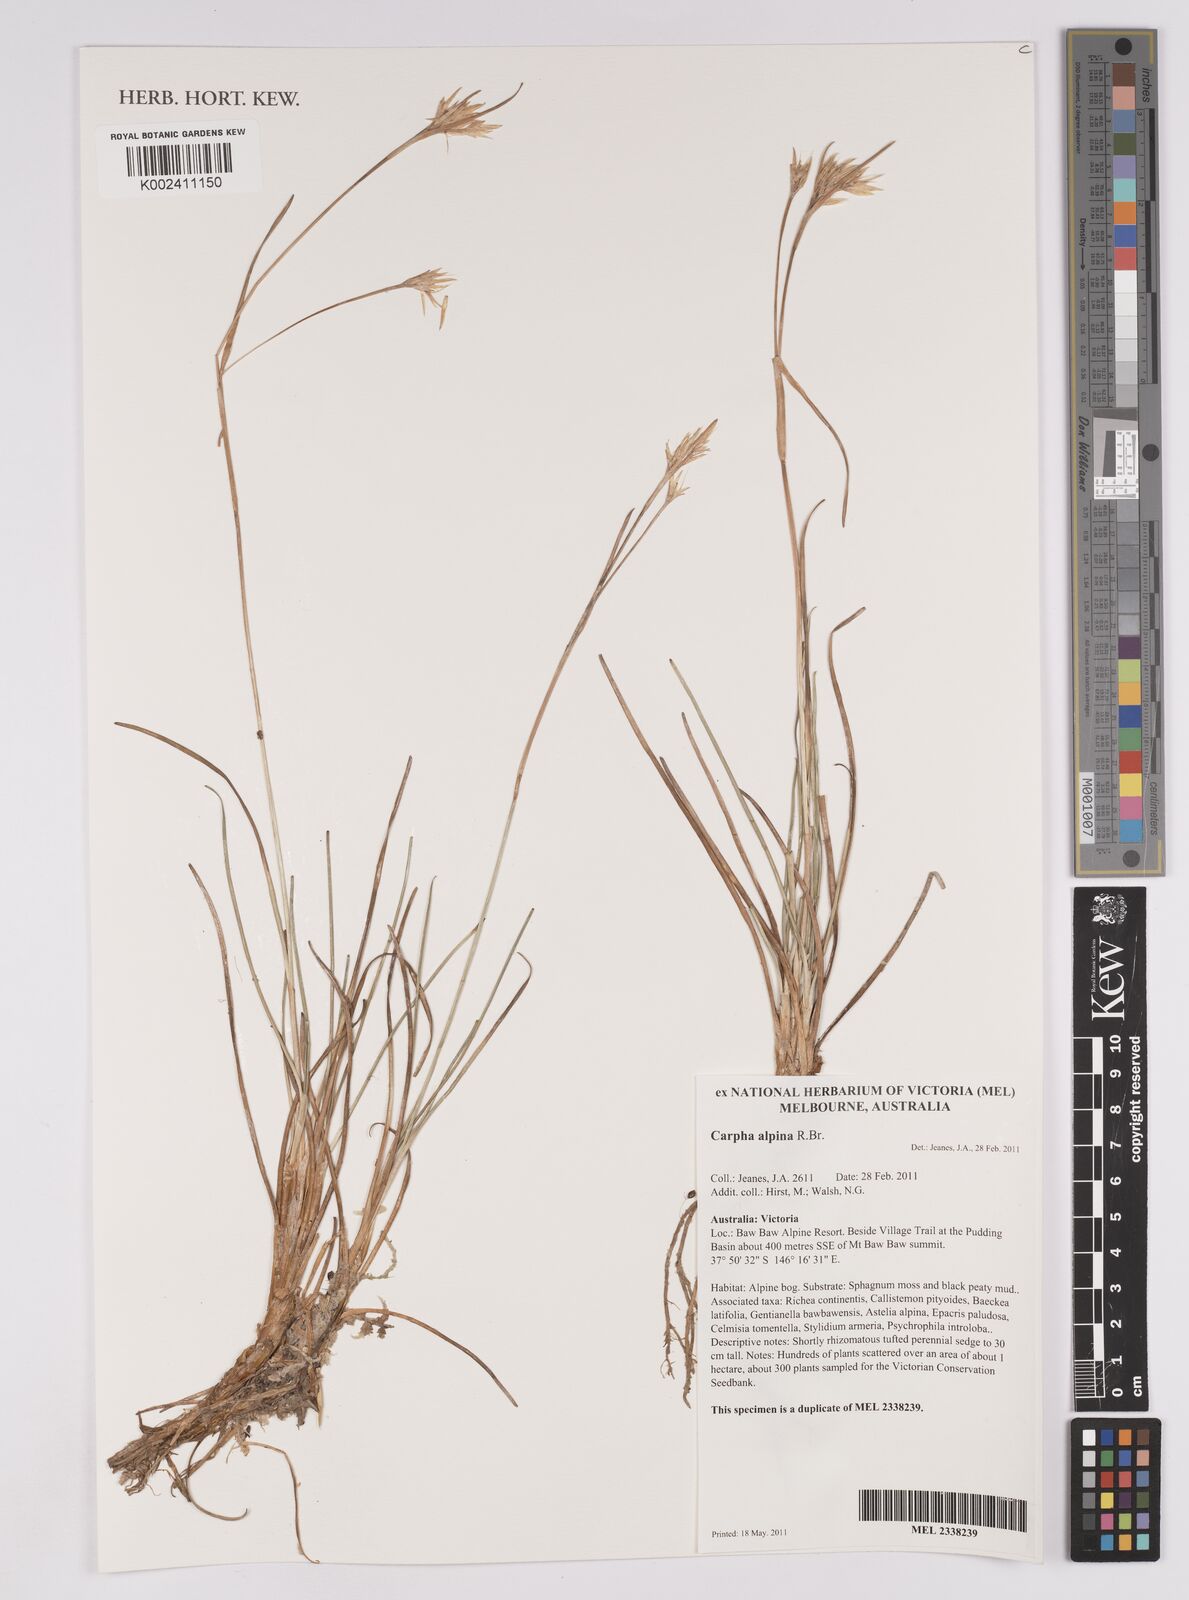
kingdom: Plantae
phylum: Tracheophyta
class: Liliopsida
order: Poales
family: Cyperaceae
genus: Carpha
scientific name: Carpha alpina
